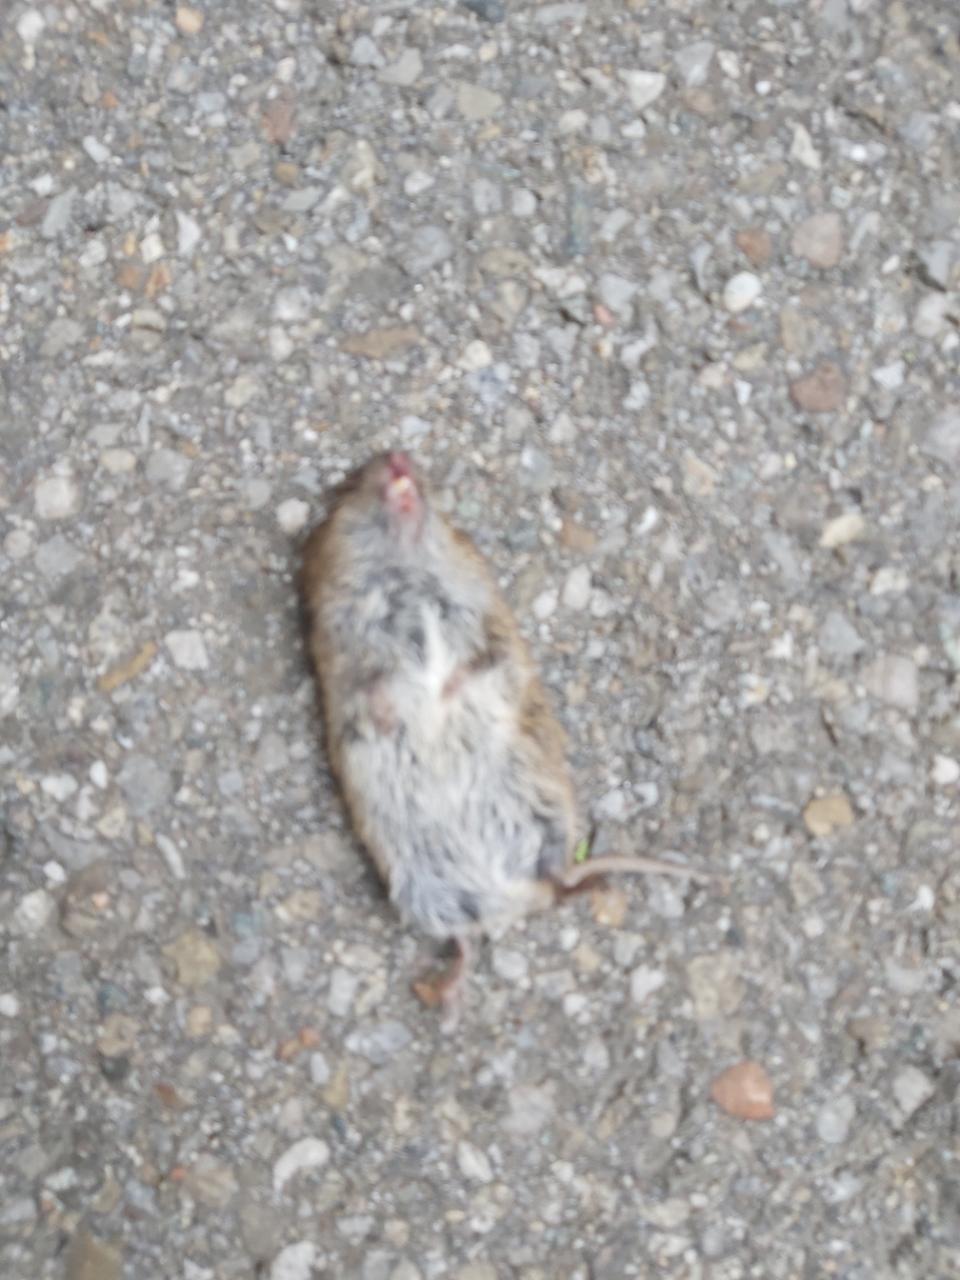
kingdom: Animalia
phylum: Chordata
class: Mammalia
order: Rodentia
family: Cricetidae
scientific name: Cricetidae
